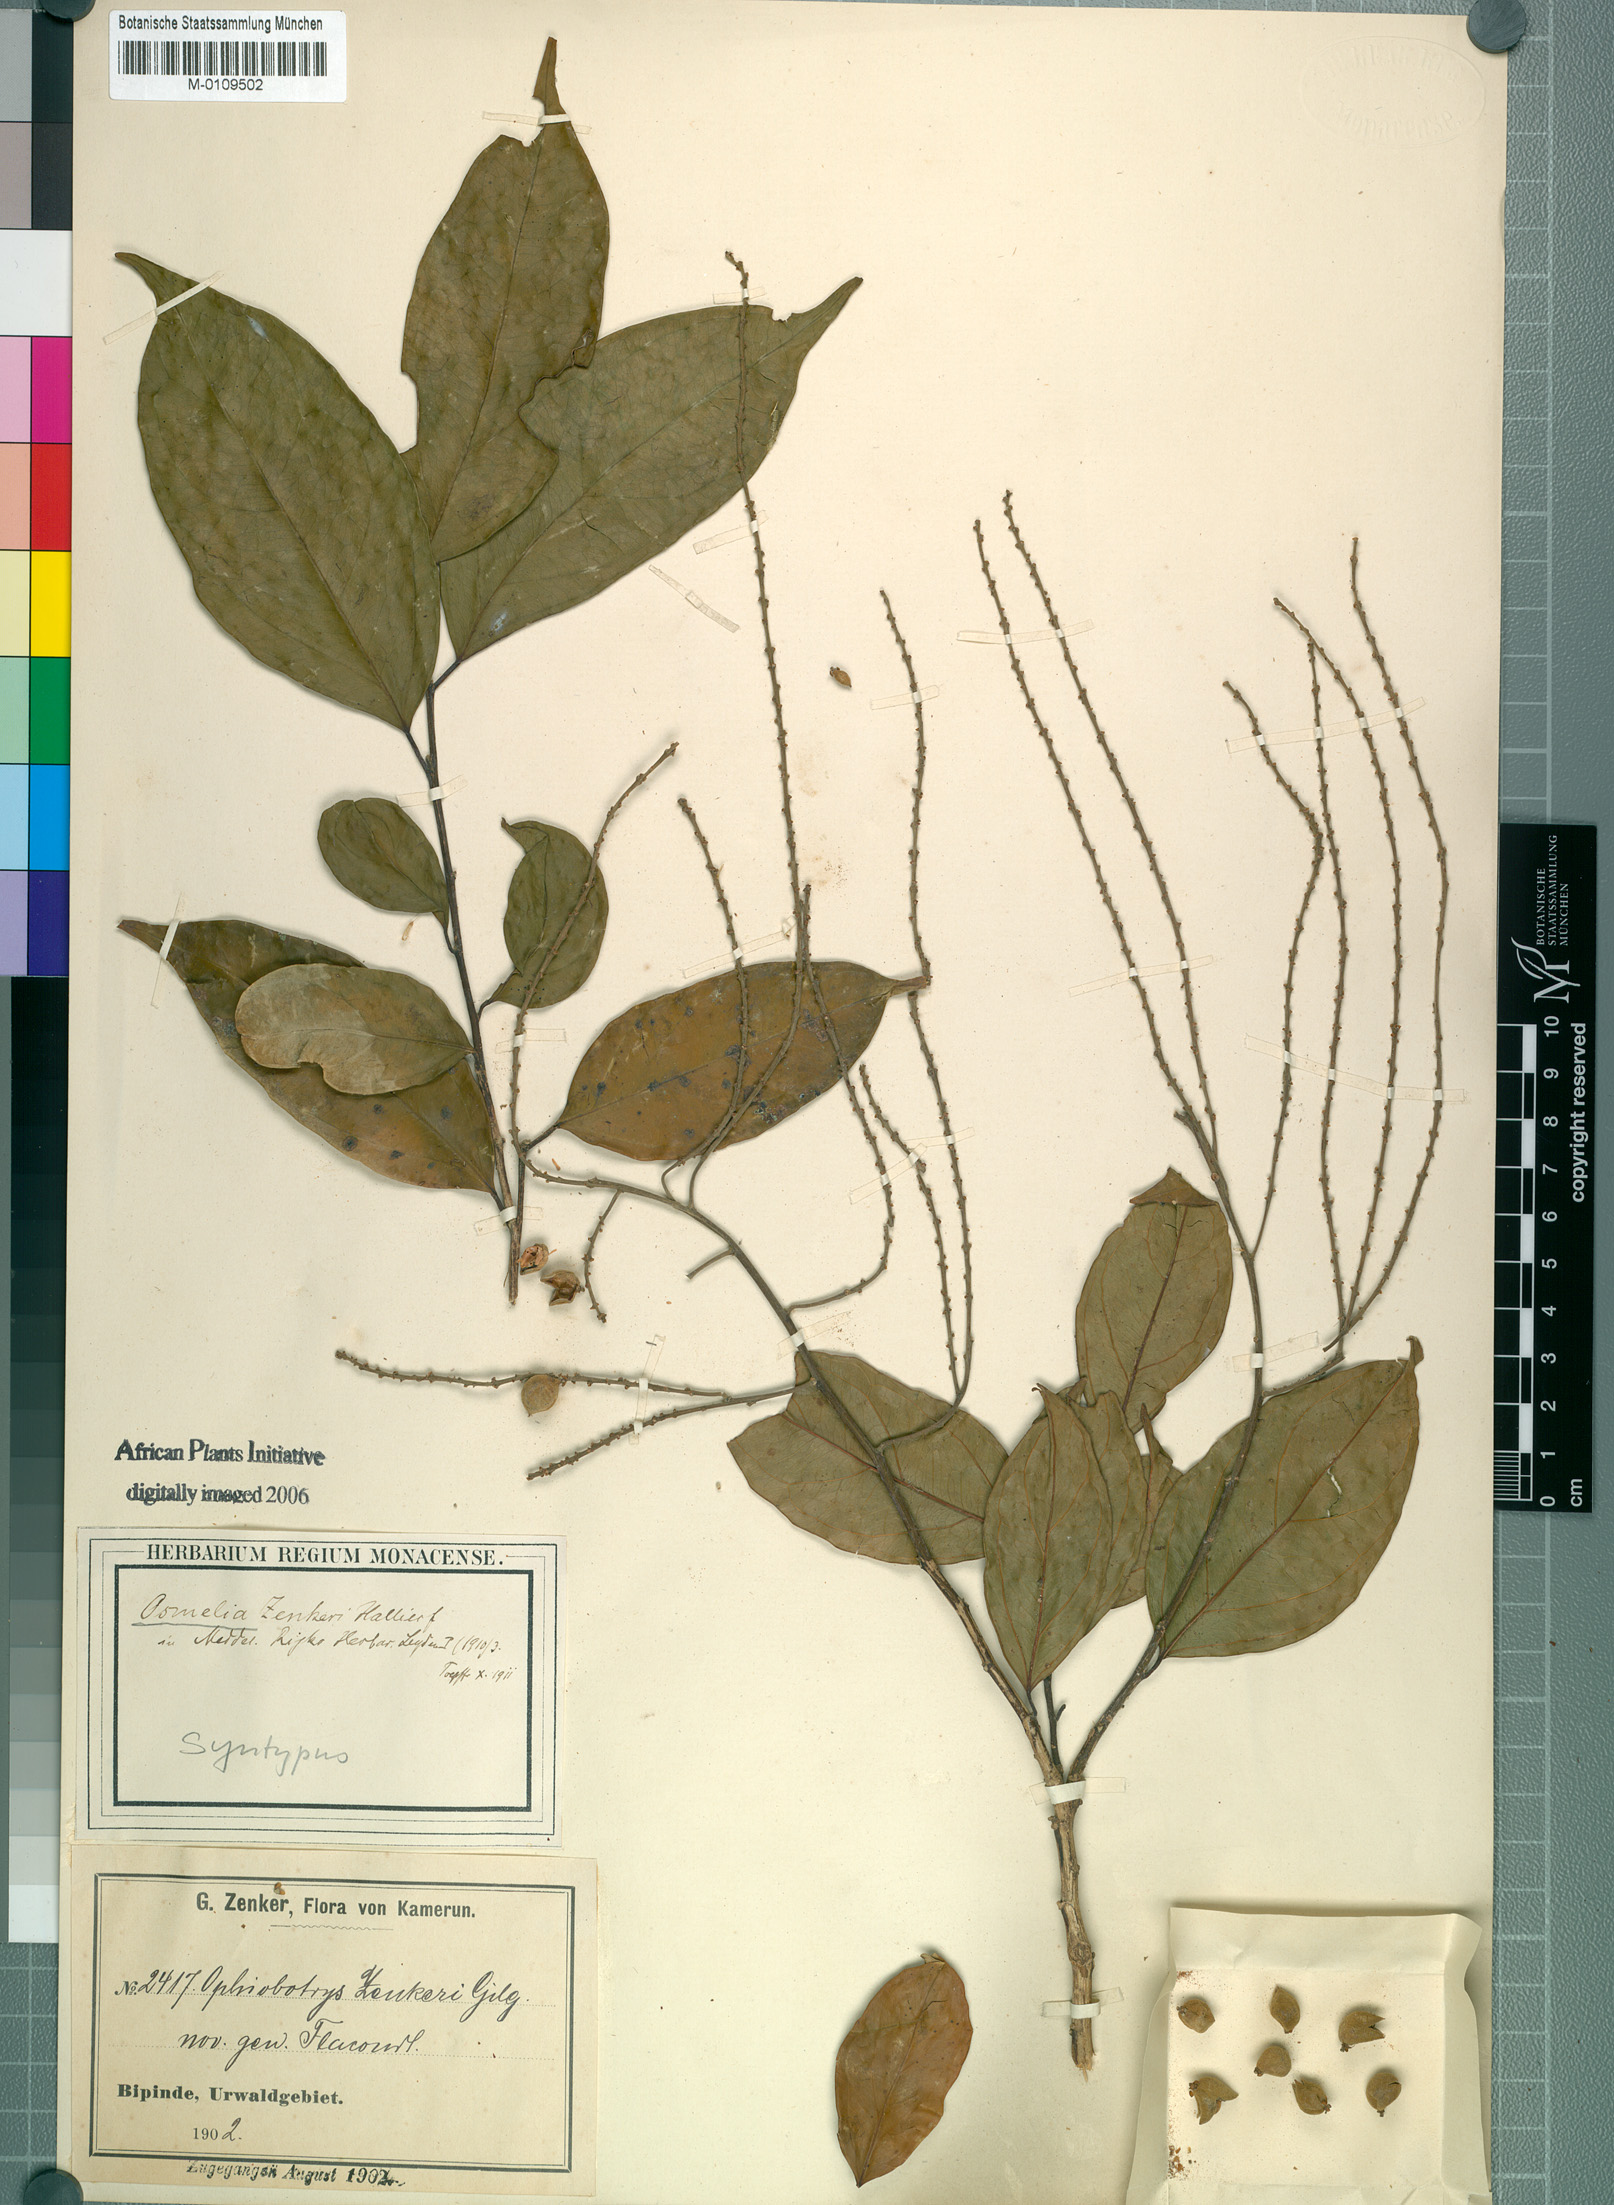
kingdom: Plantae
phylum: Tracheophyta
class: Magnoliopsida
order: Malpighiales
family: Salicaceae
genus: Ophiobotrys
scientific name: Ophiobotrys zenkeri
